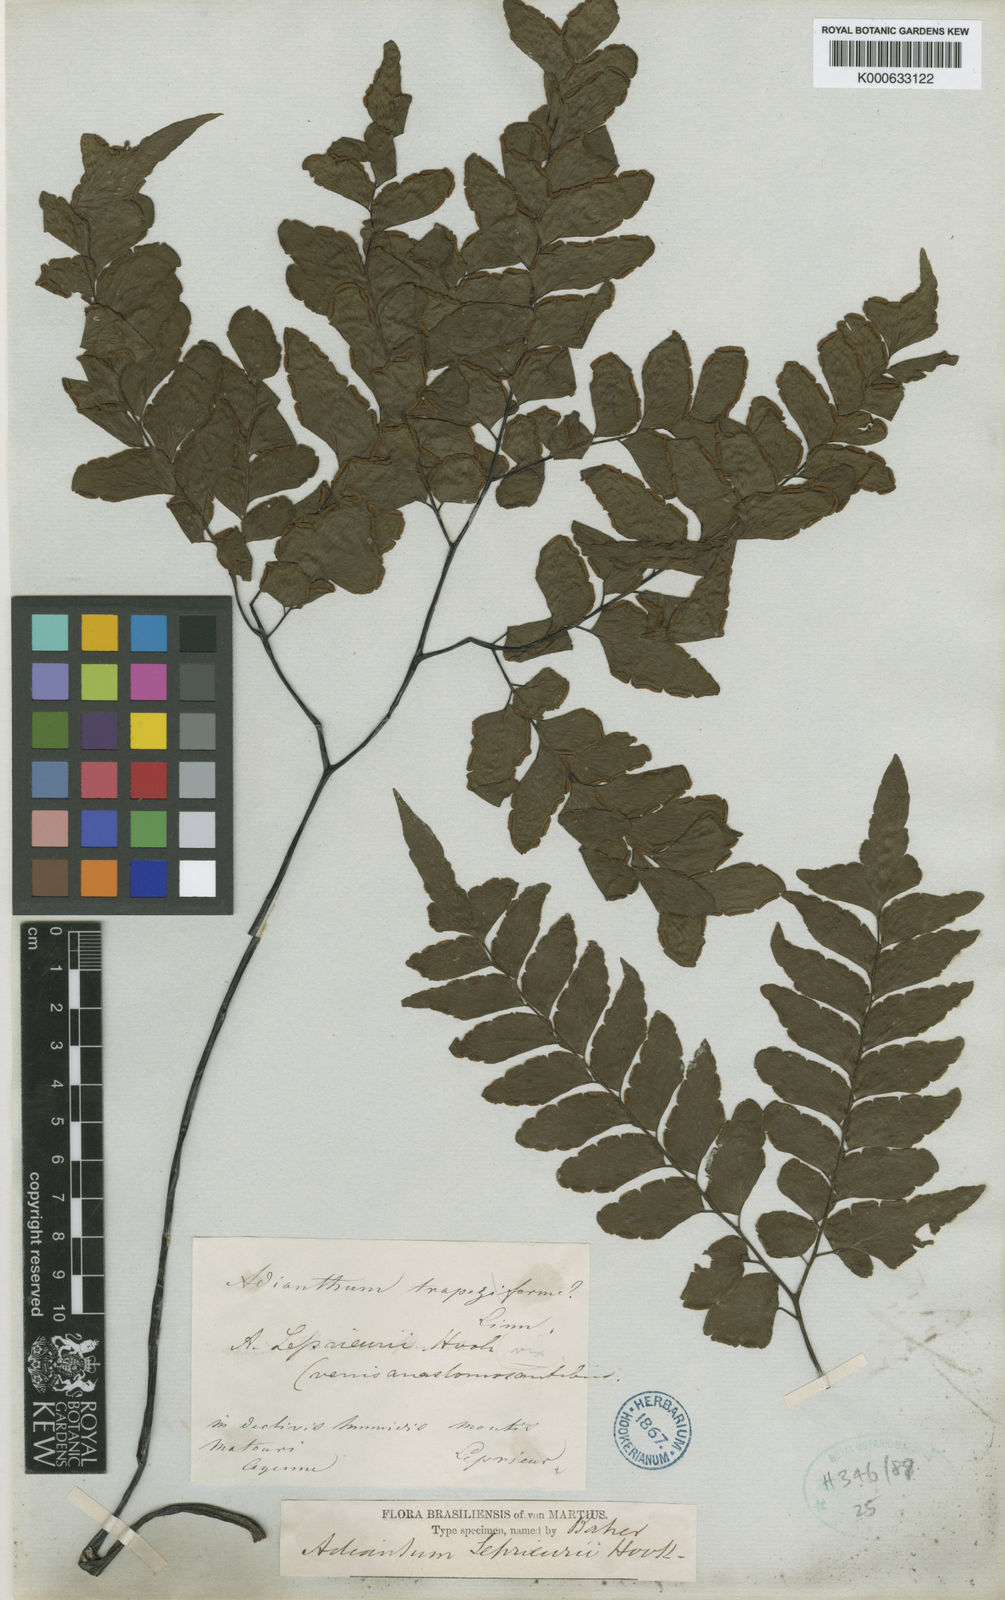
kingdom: Plantae
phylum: Tracheophyta
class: Polypodiopsida
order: Polypodiales
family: Pteridaceae
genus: Adiantum
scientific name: Adiantum leprieurii
